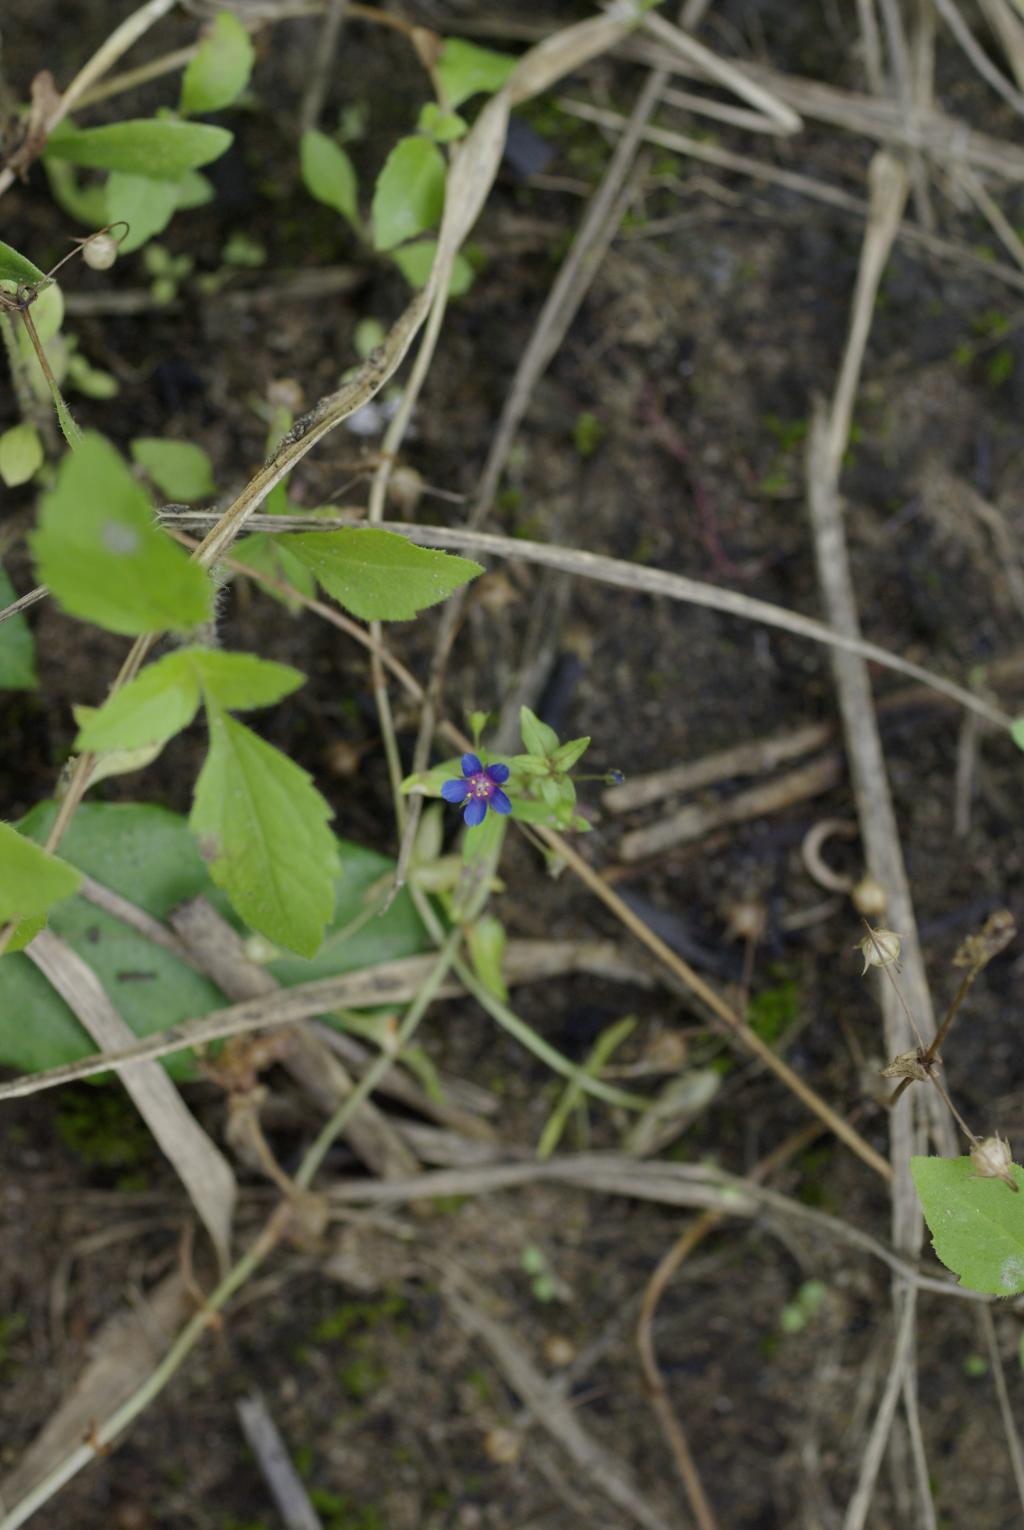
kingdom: Plantae
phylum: Tracheophyta
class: Magnoliopsida
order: Ericales
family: Primulaceae
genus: Lysimachia
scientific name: Lysimachia arvensis
